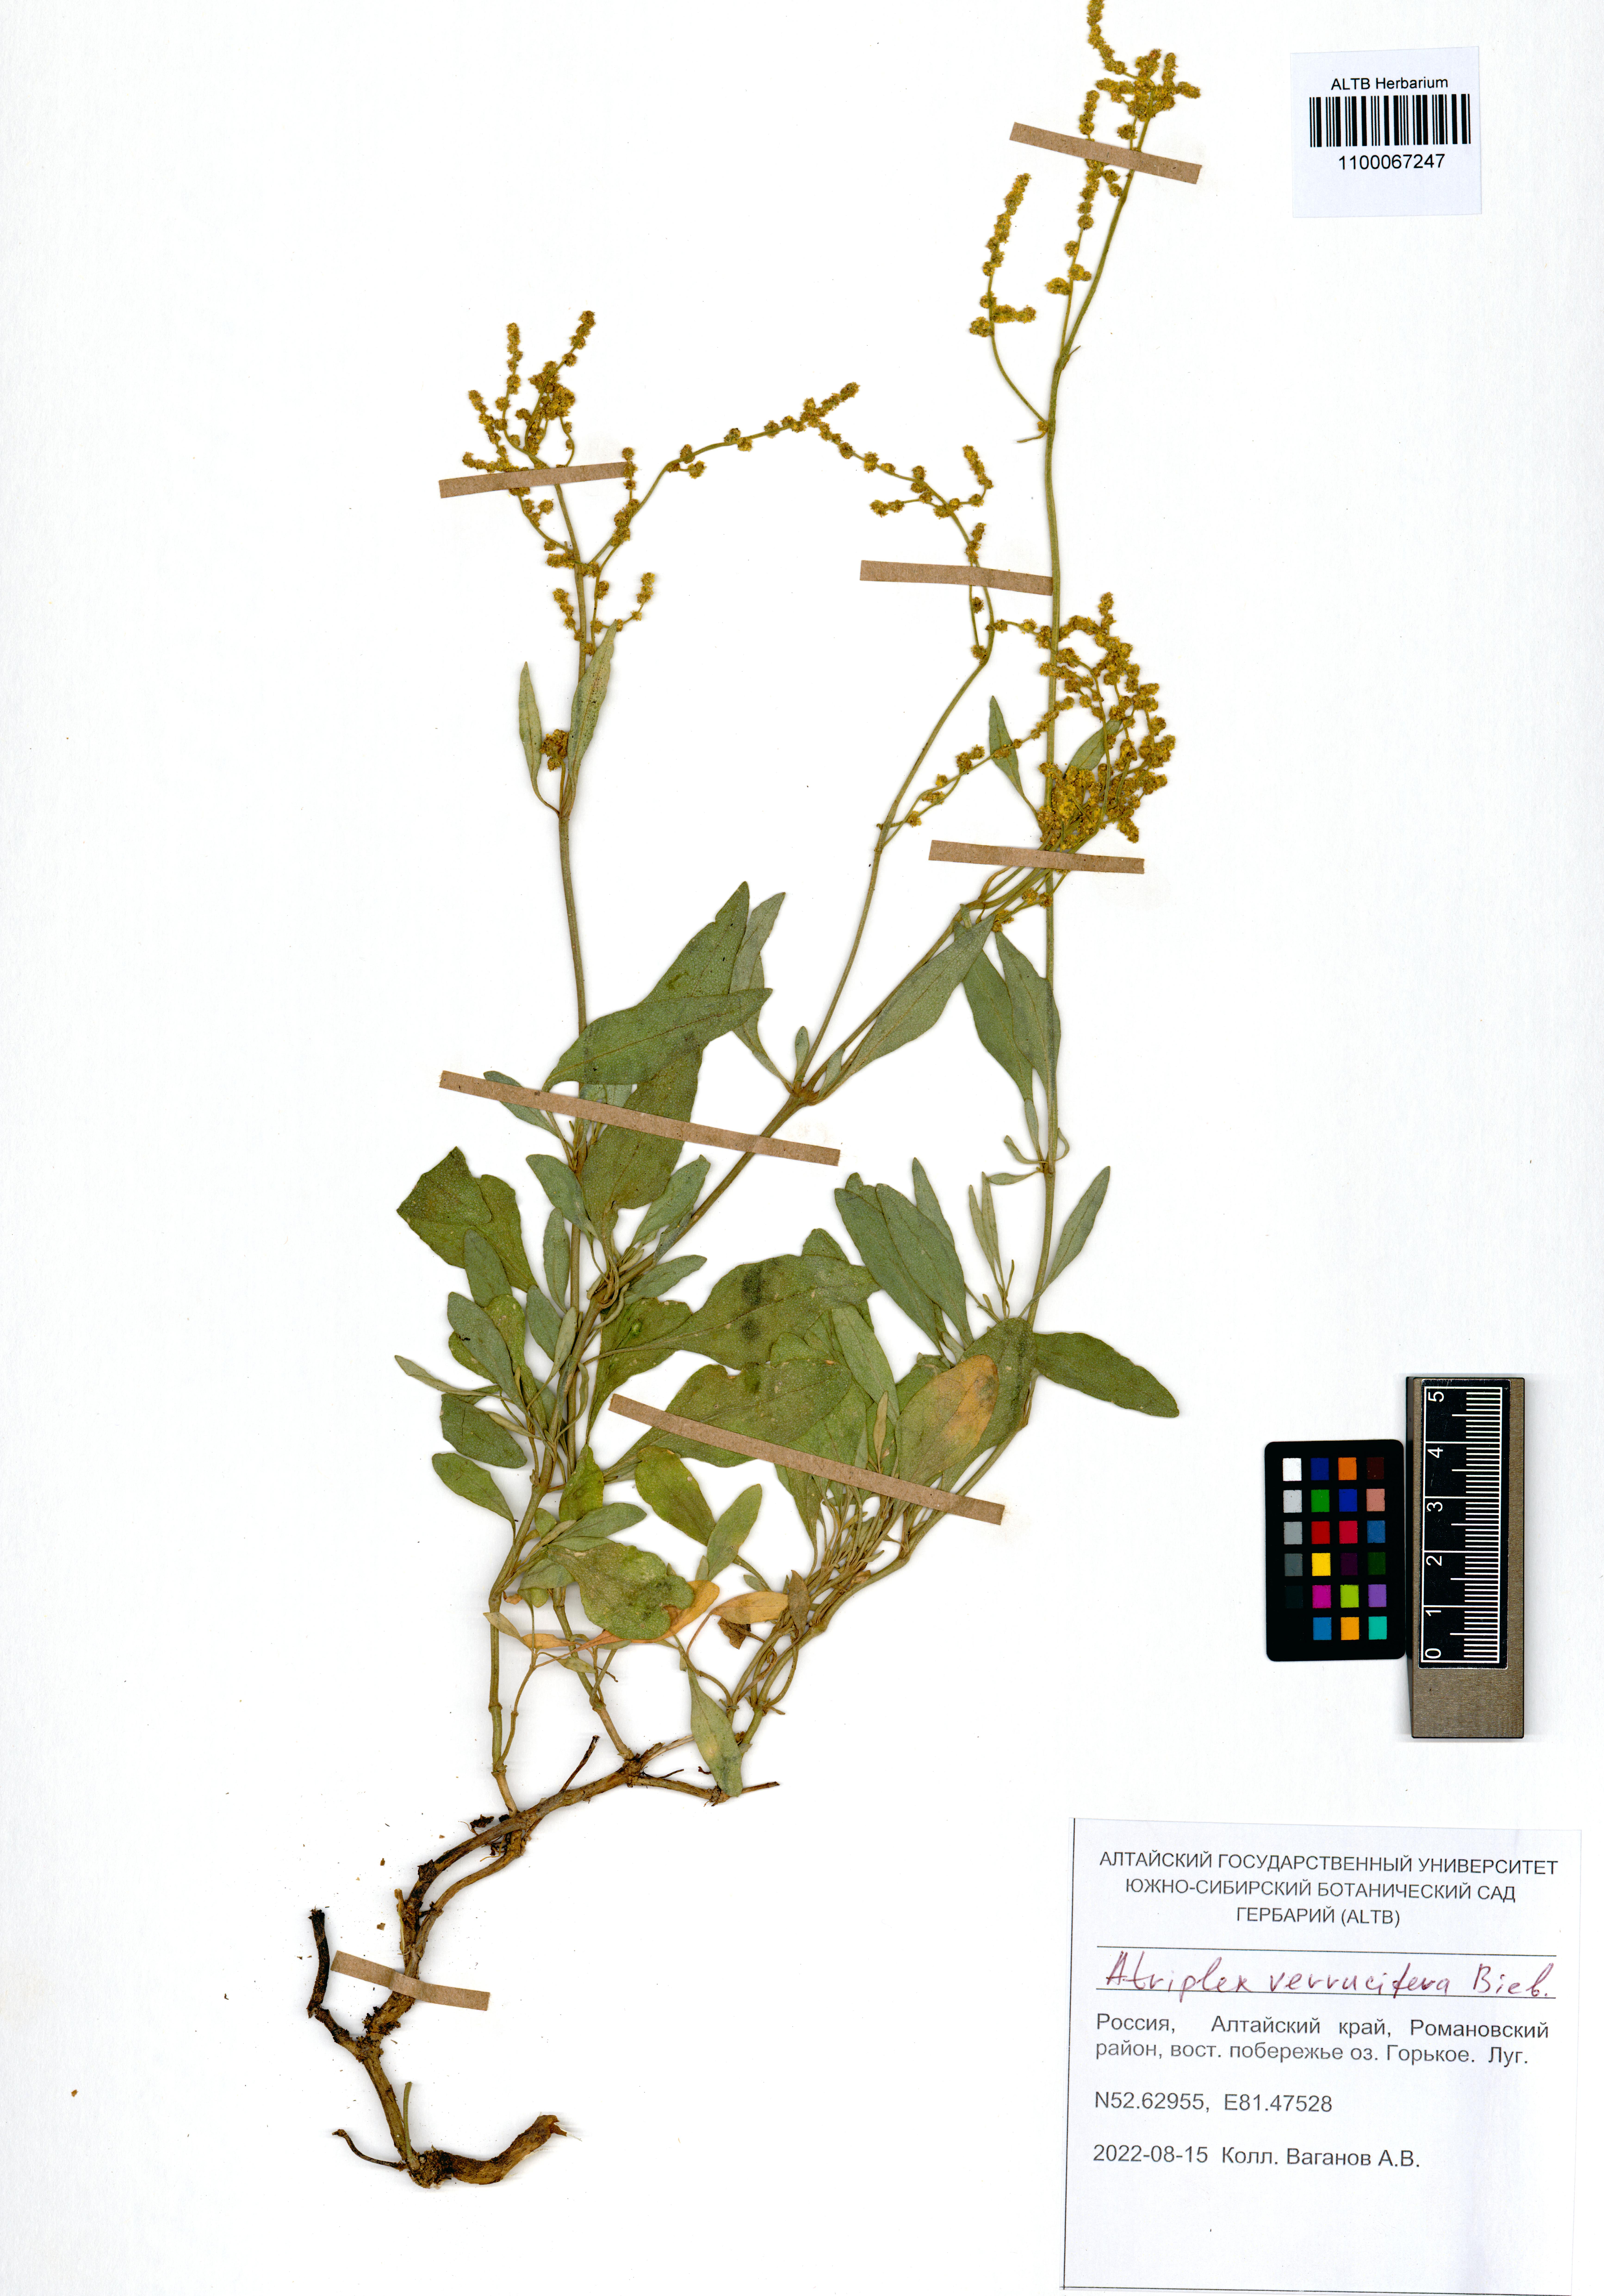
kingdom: Plantae
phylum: Tracheophyta
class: Magnoliopsida
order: Caryophyllales
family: Amaranthaceae
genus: Halimione
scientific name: Halimione verrucifera
